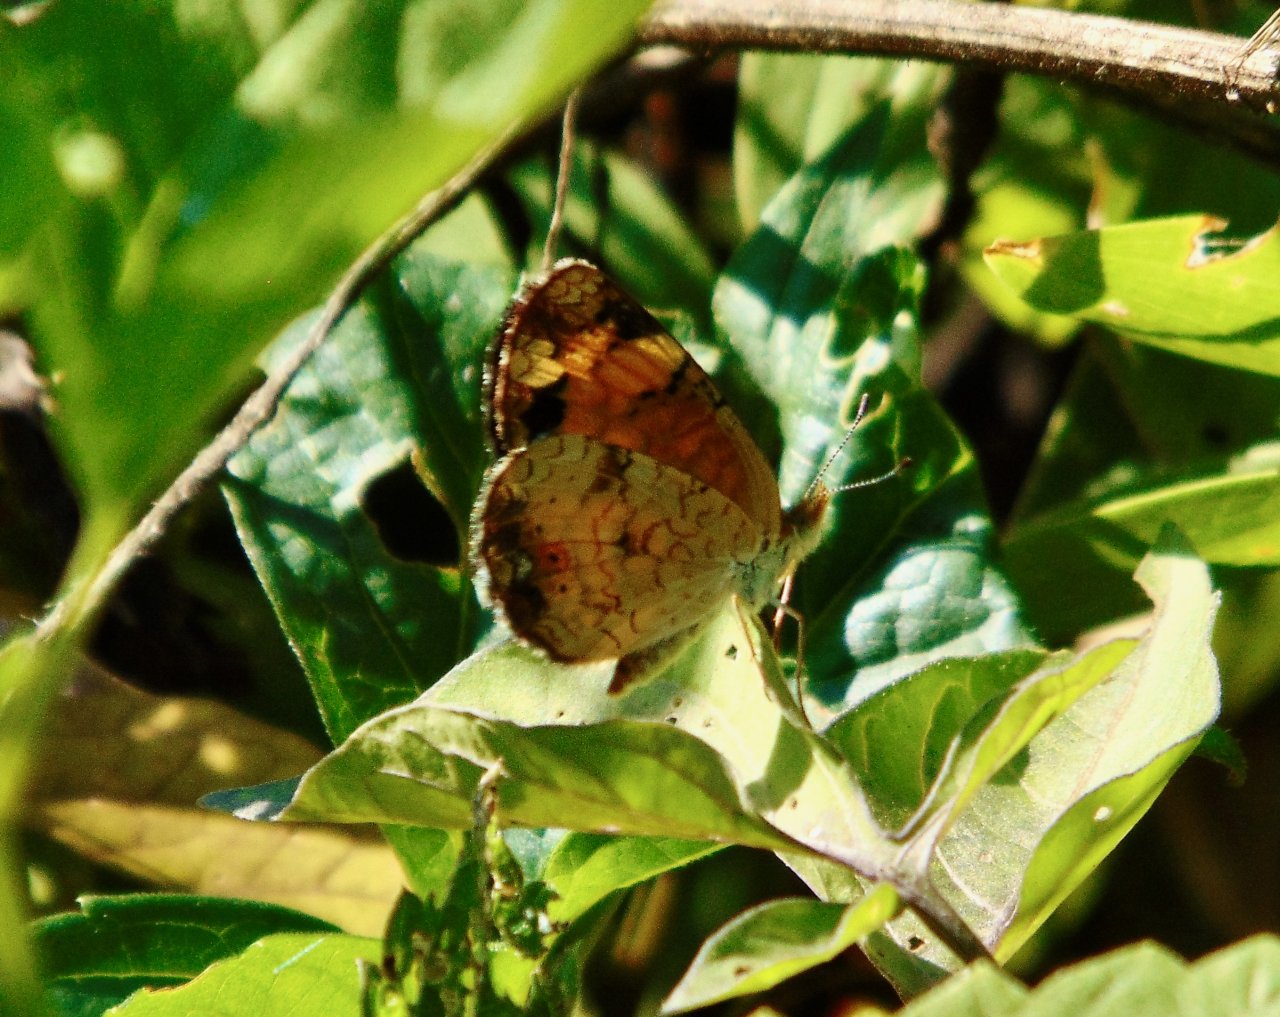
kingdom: Animalia
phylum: Arthropoda
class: Insecta
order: Lepidoptera
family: Nymphalidae
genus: Phyciodes
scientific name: Phyciodes tharos
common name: Pearl Crescent
